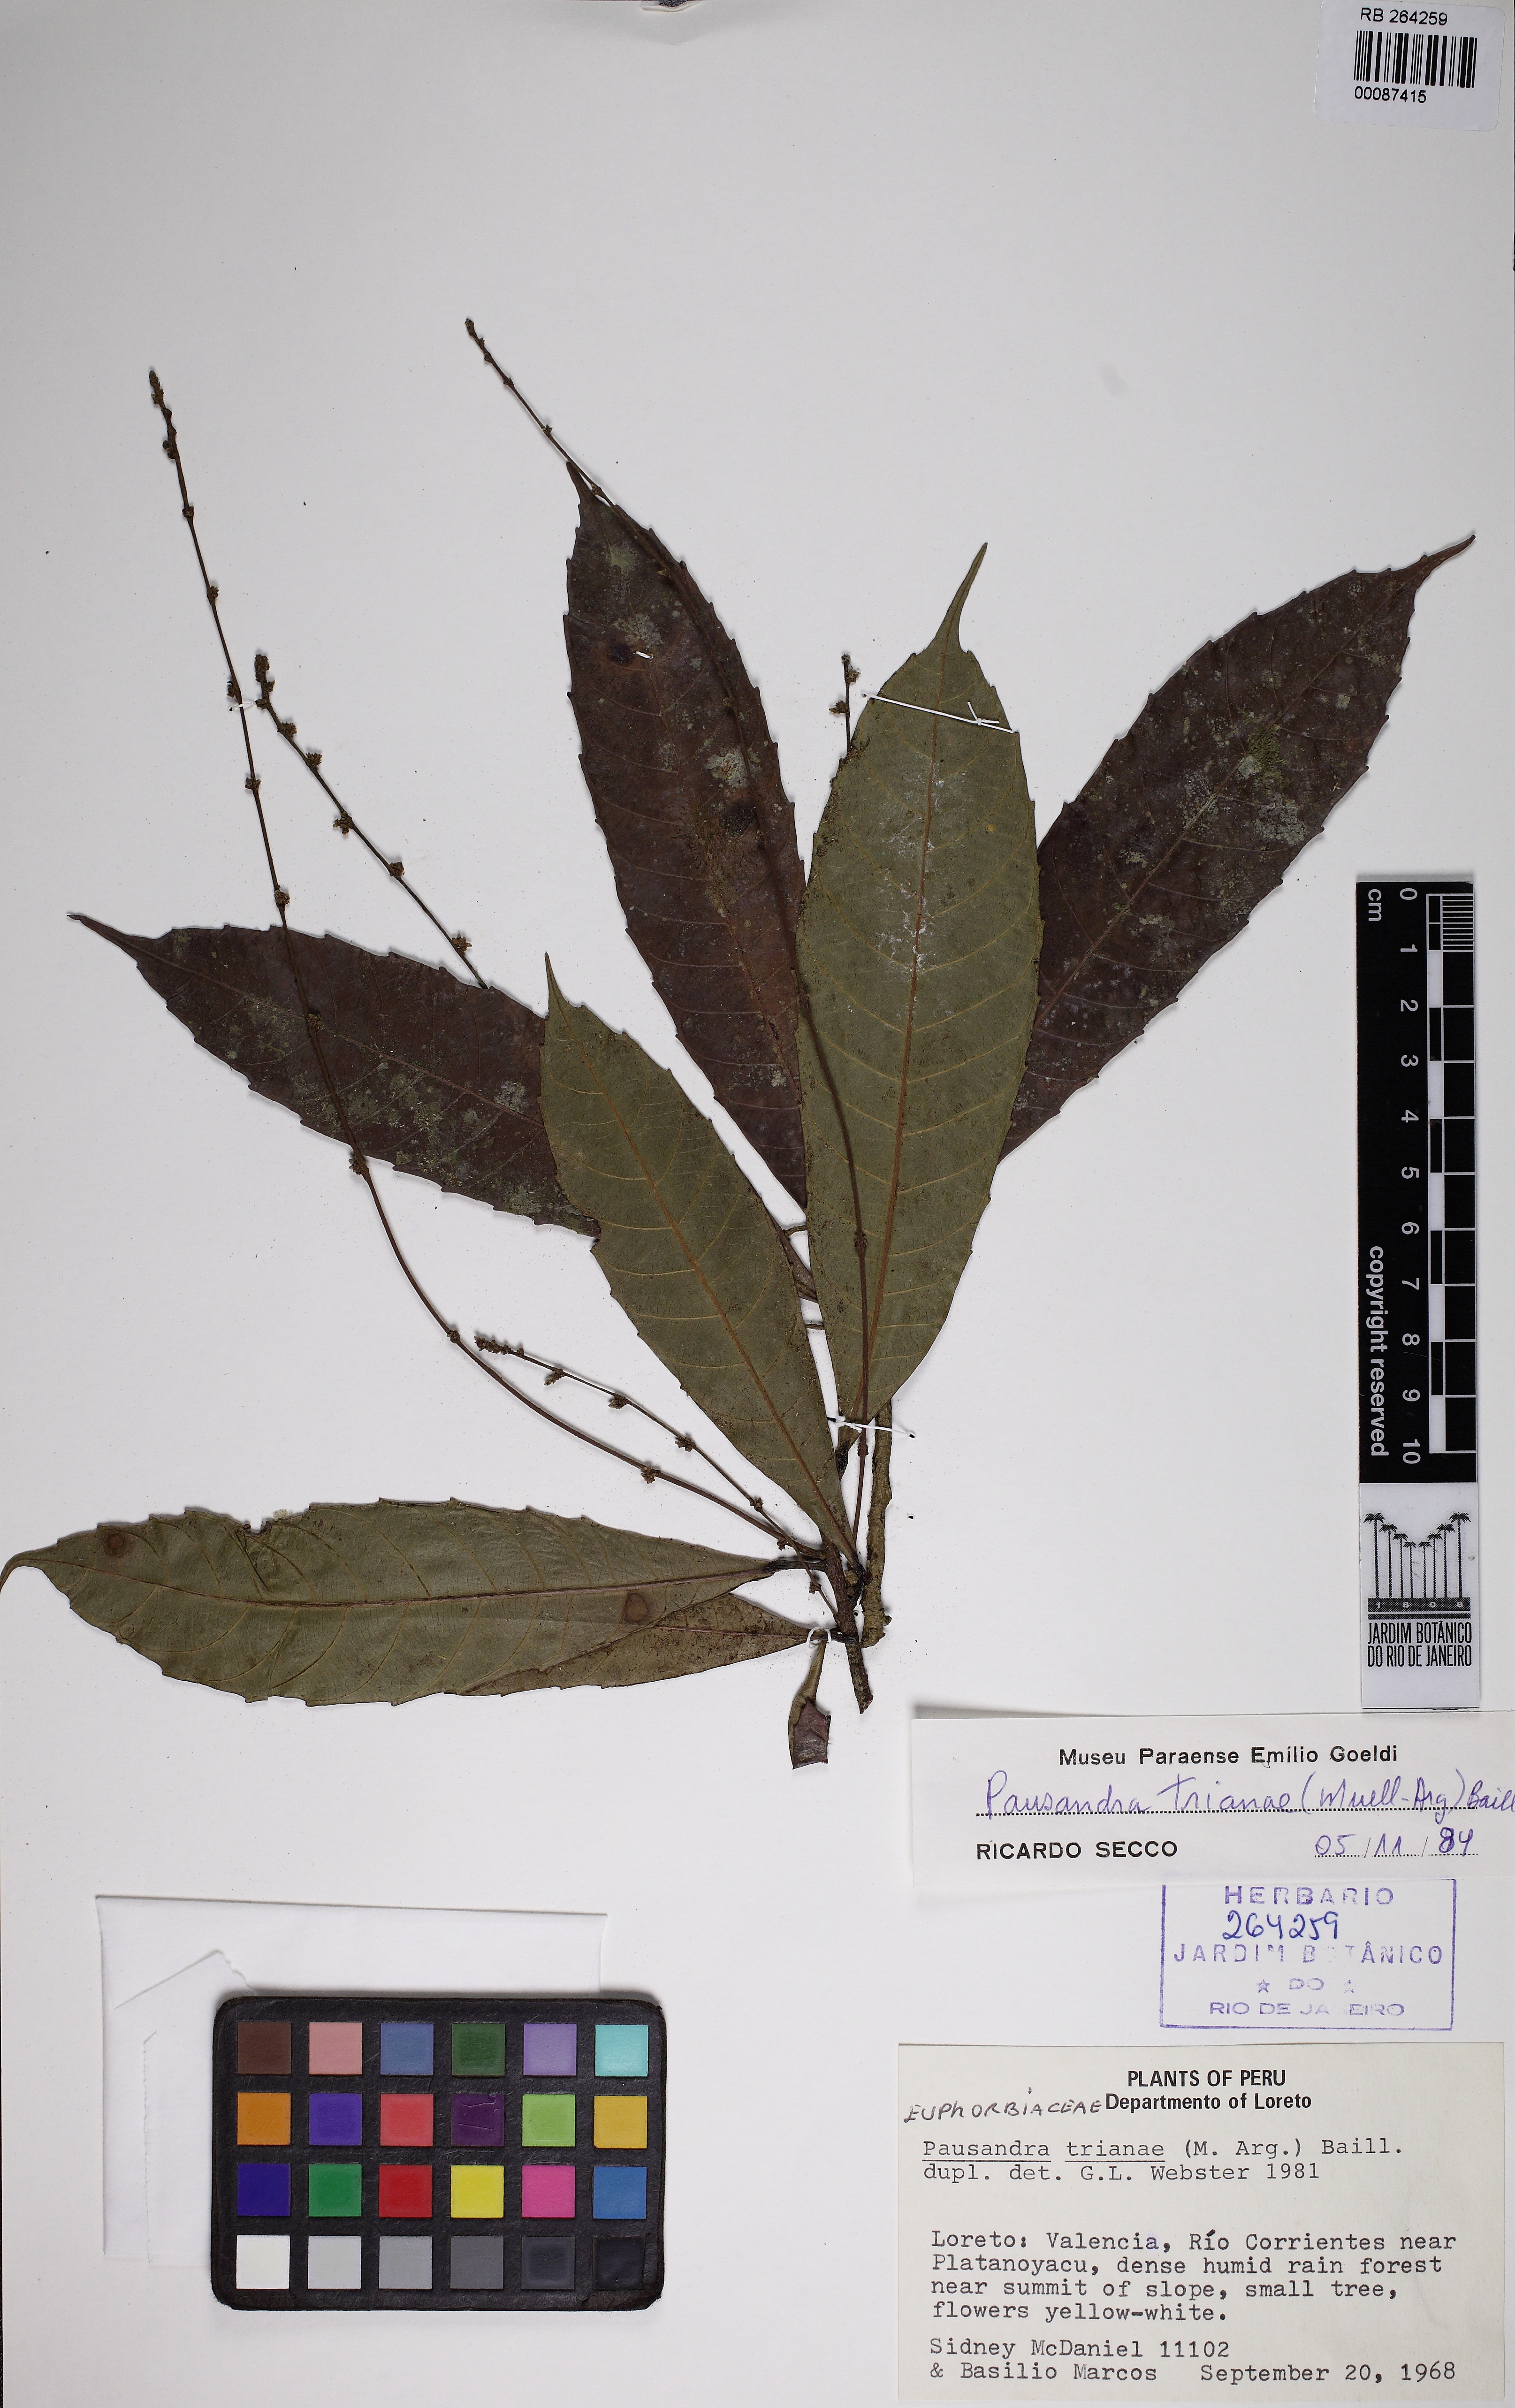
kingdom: Plantae
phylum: Tracheophyta
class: Magnoliopsida
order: Malpighiales
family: Euphorbiaceae
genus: Pausandra
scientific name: Pausandra trianae
